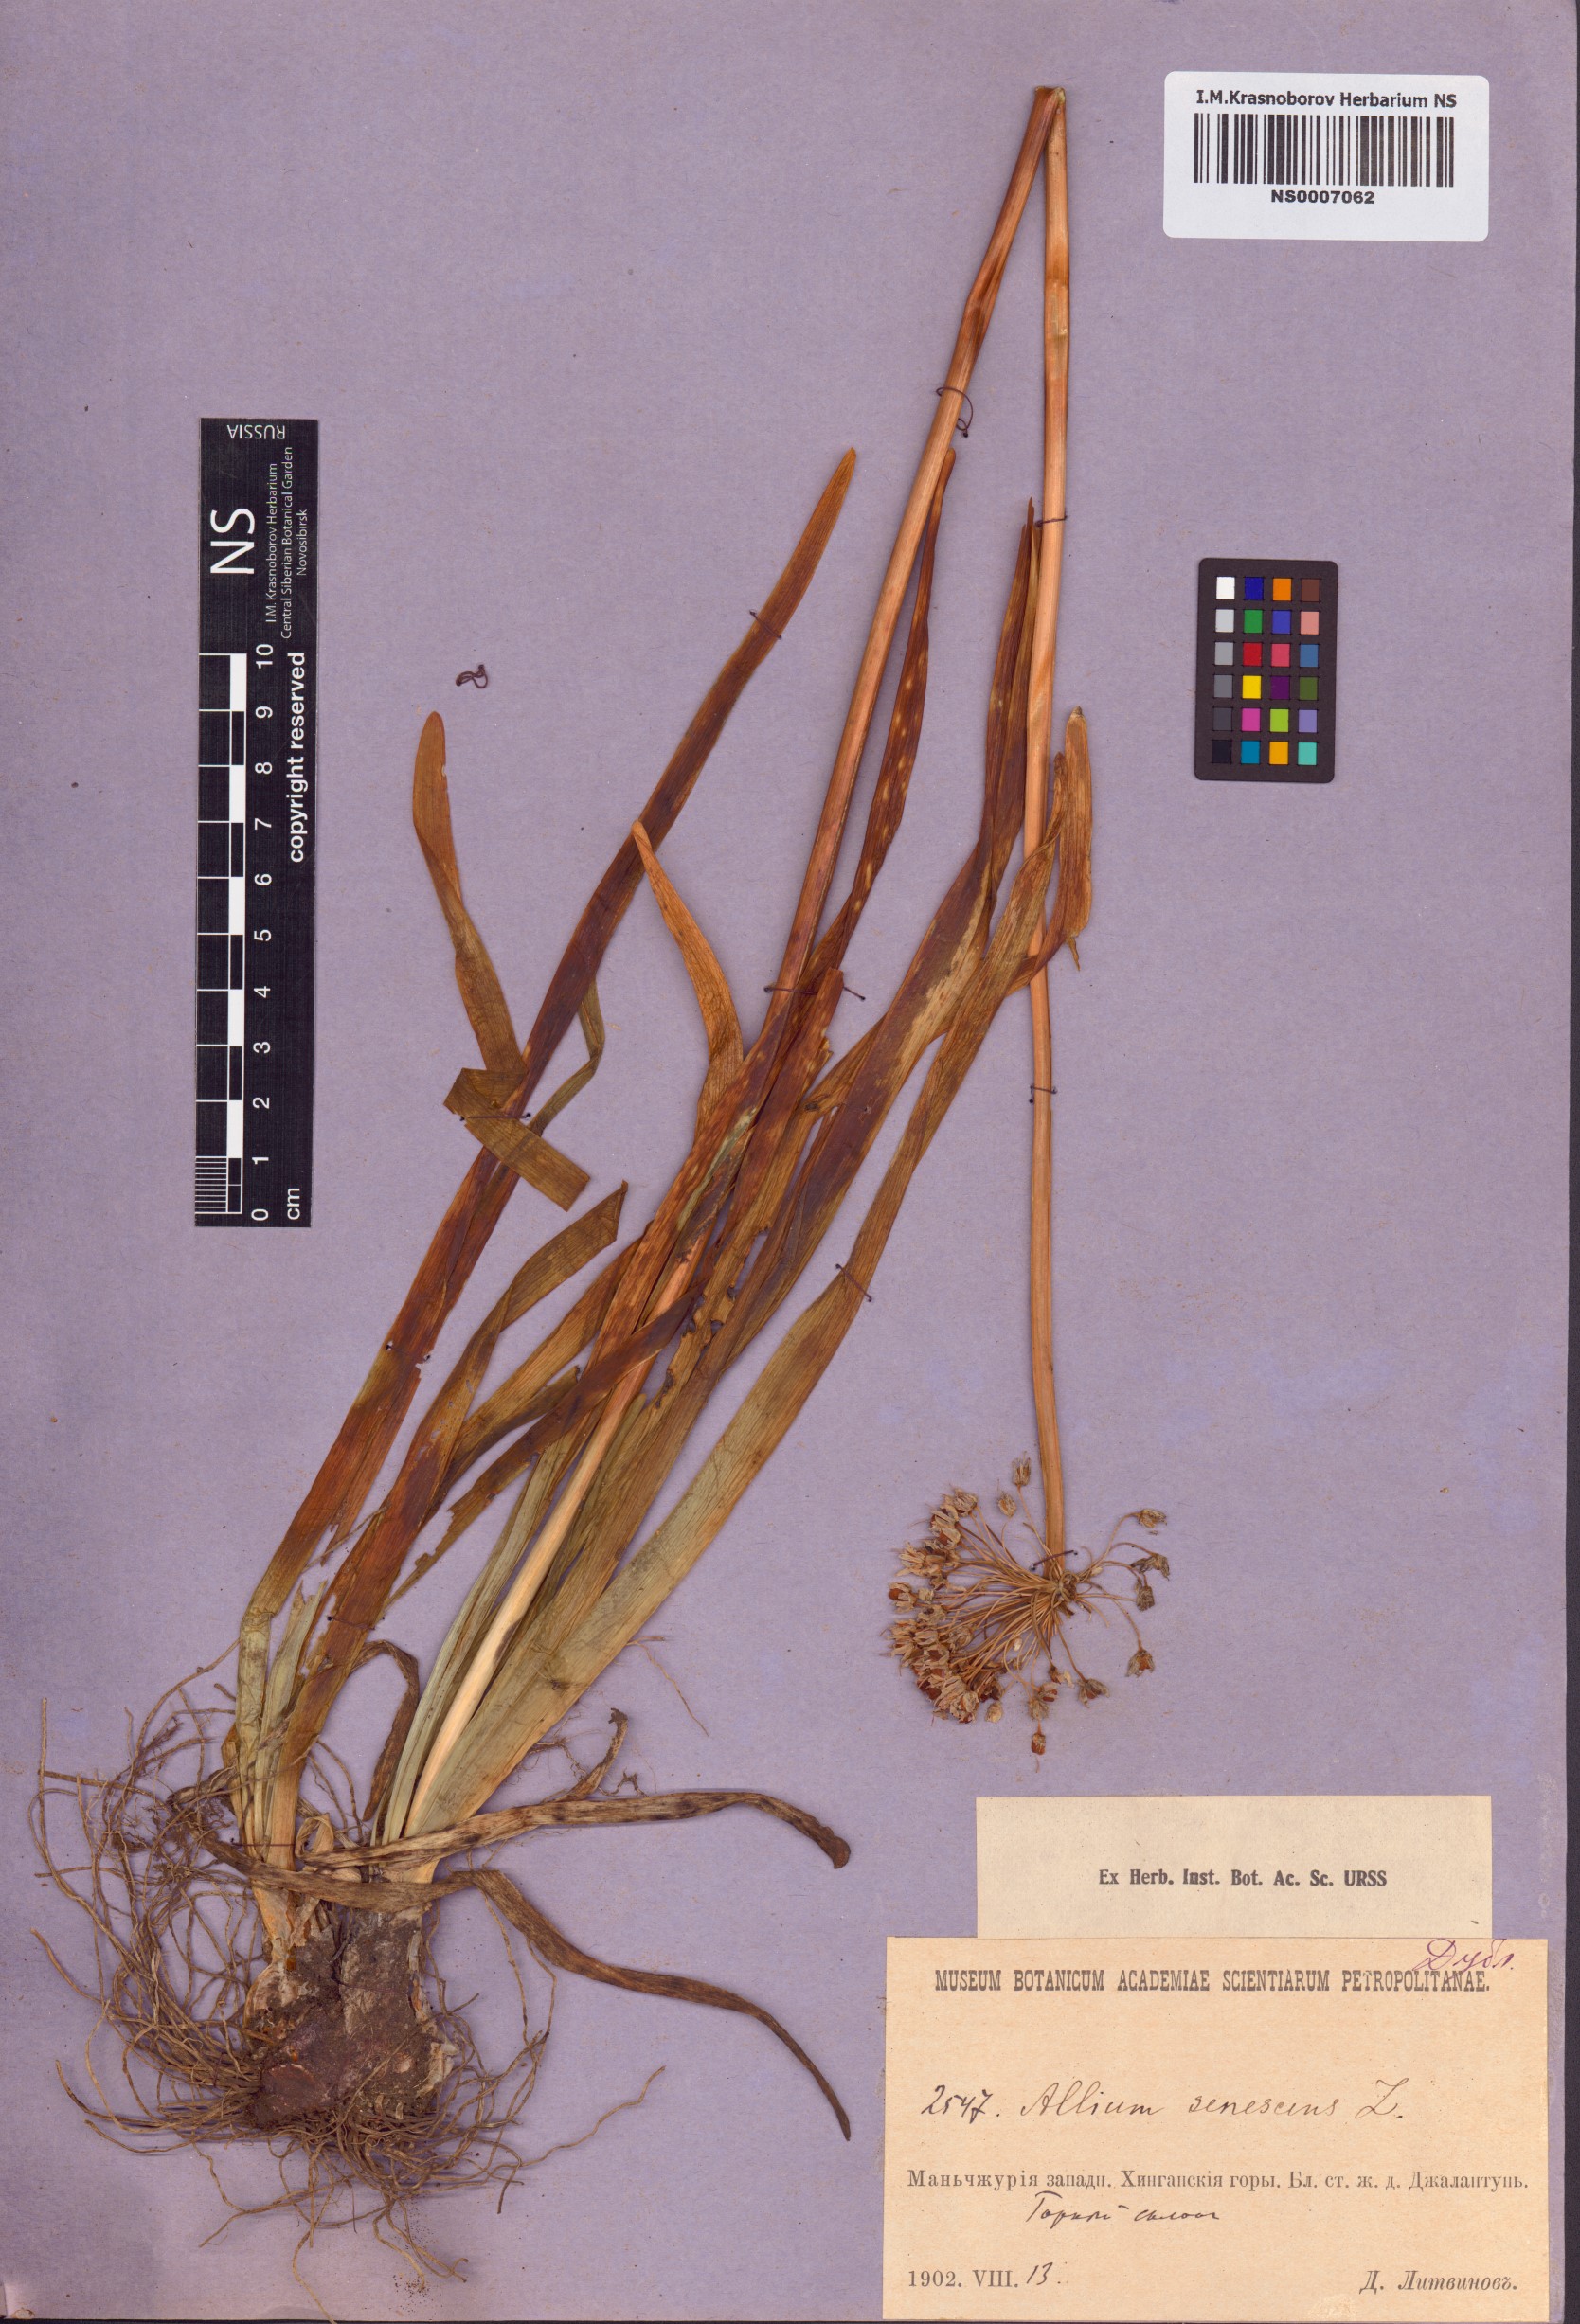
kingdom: Plantae
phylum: Tracheophyta
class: Liliopsida
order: Asparagales
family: Amaryllidaceae
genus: Allium
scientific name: Allium senescens
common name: German garlic
